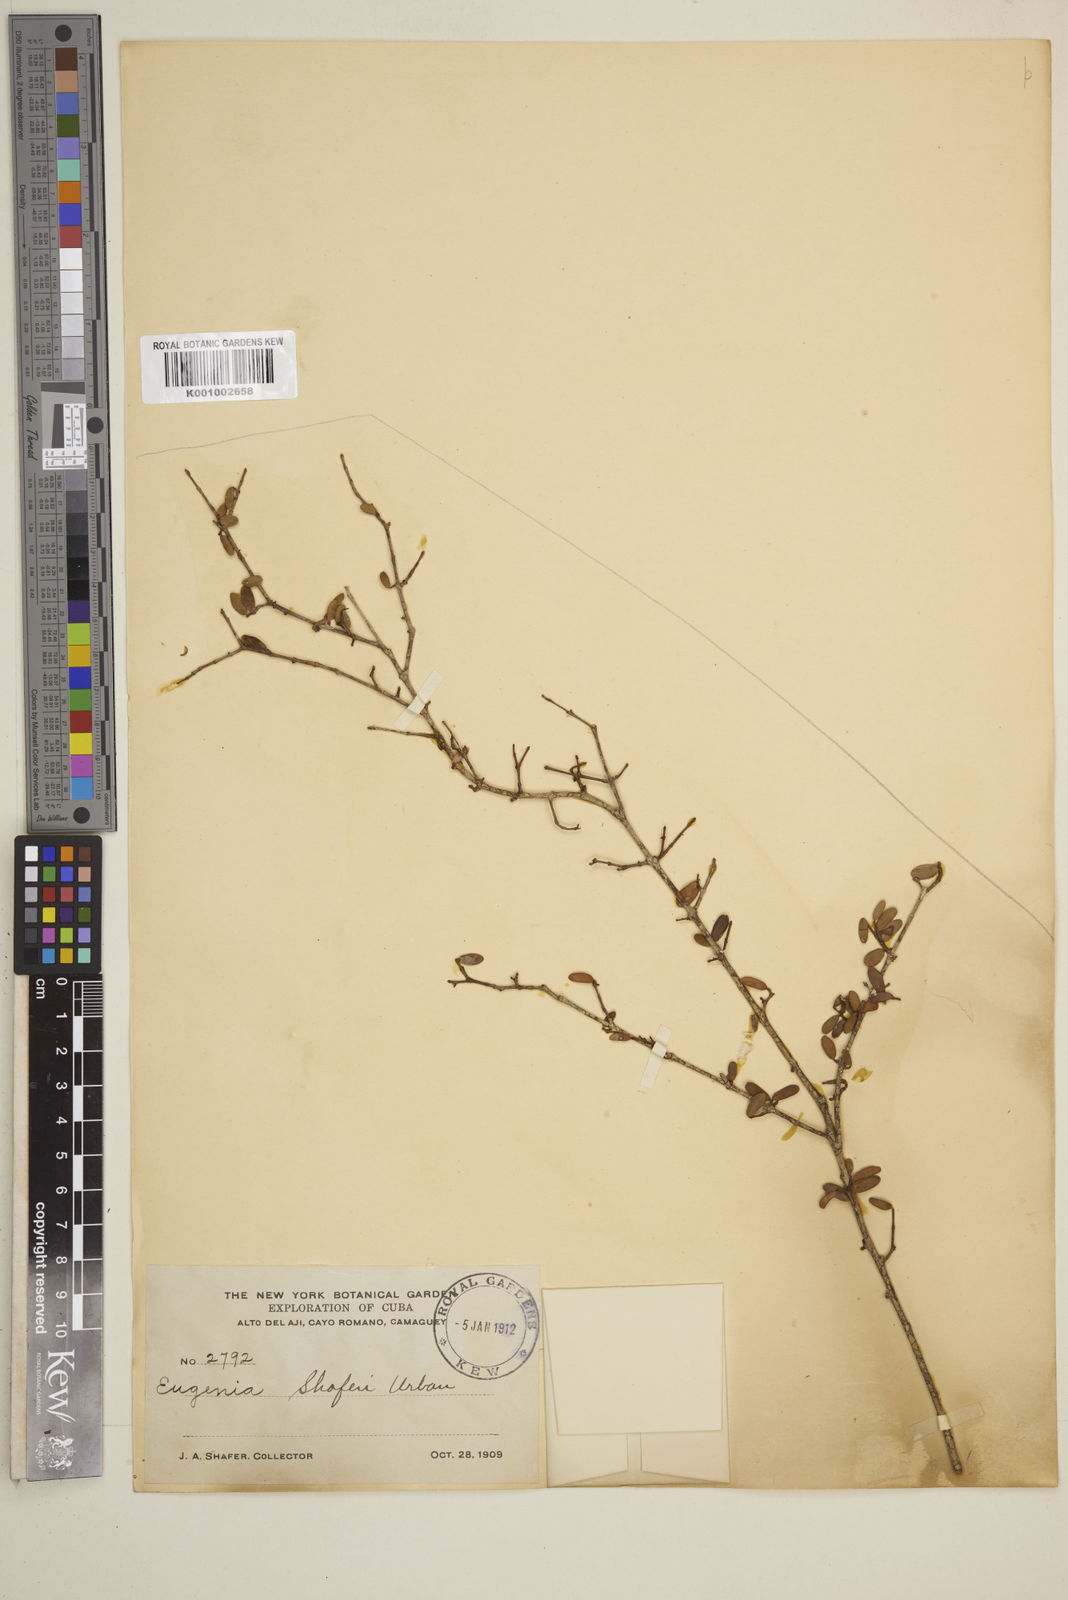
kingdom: Plantae
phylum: Tracheophyta
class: Magnoliopsida
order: Myrtales
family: Myrtaceae
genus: Eugenia
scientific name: Eugenia shaferi
